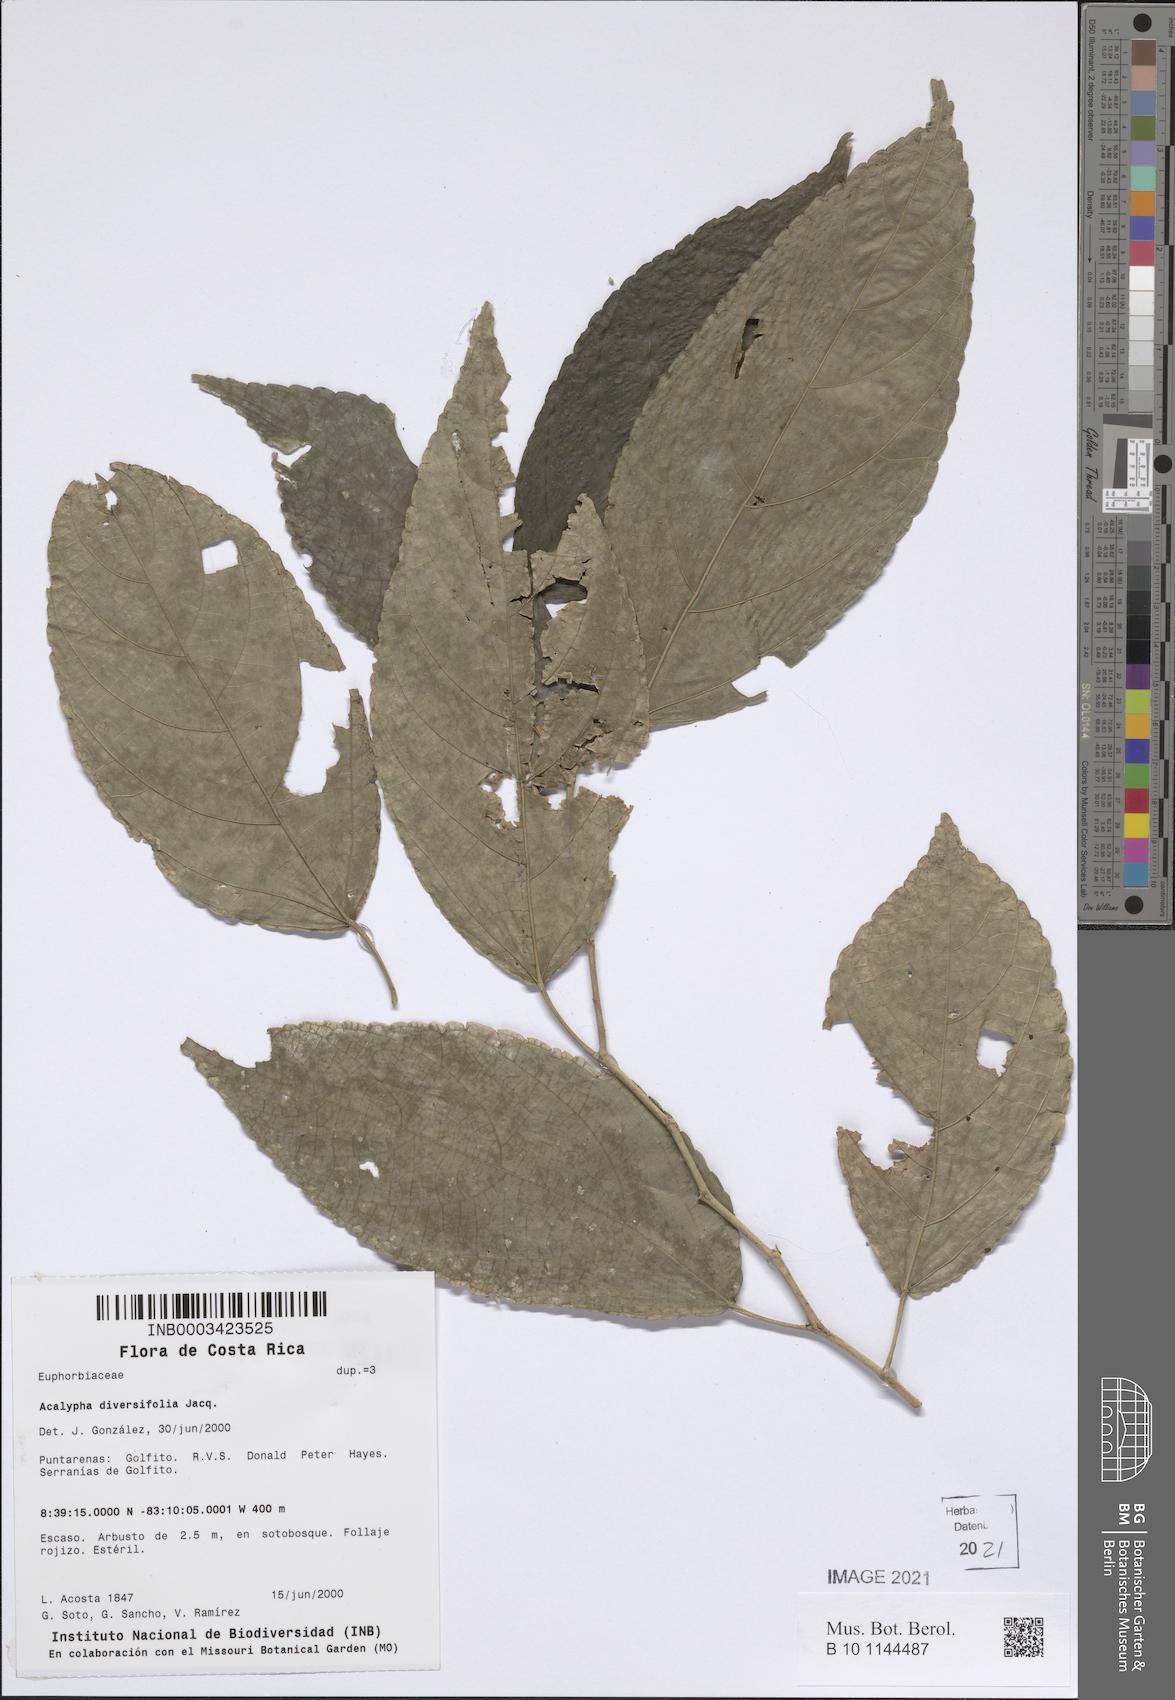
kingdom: Plantae
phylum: Tracheophyta
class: Magnoliopsida
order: Malpighiales
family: Euphorbiaceae
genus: Acalypha
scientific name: Acalypha diversifolia
